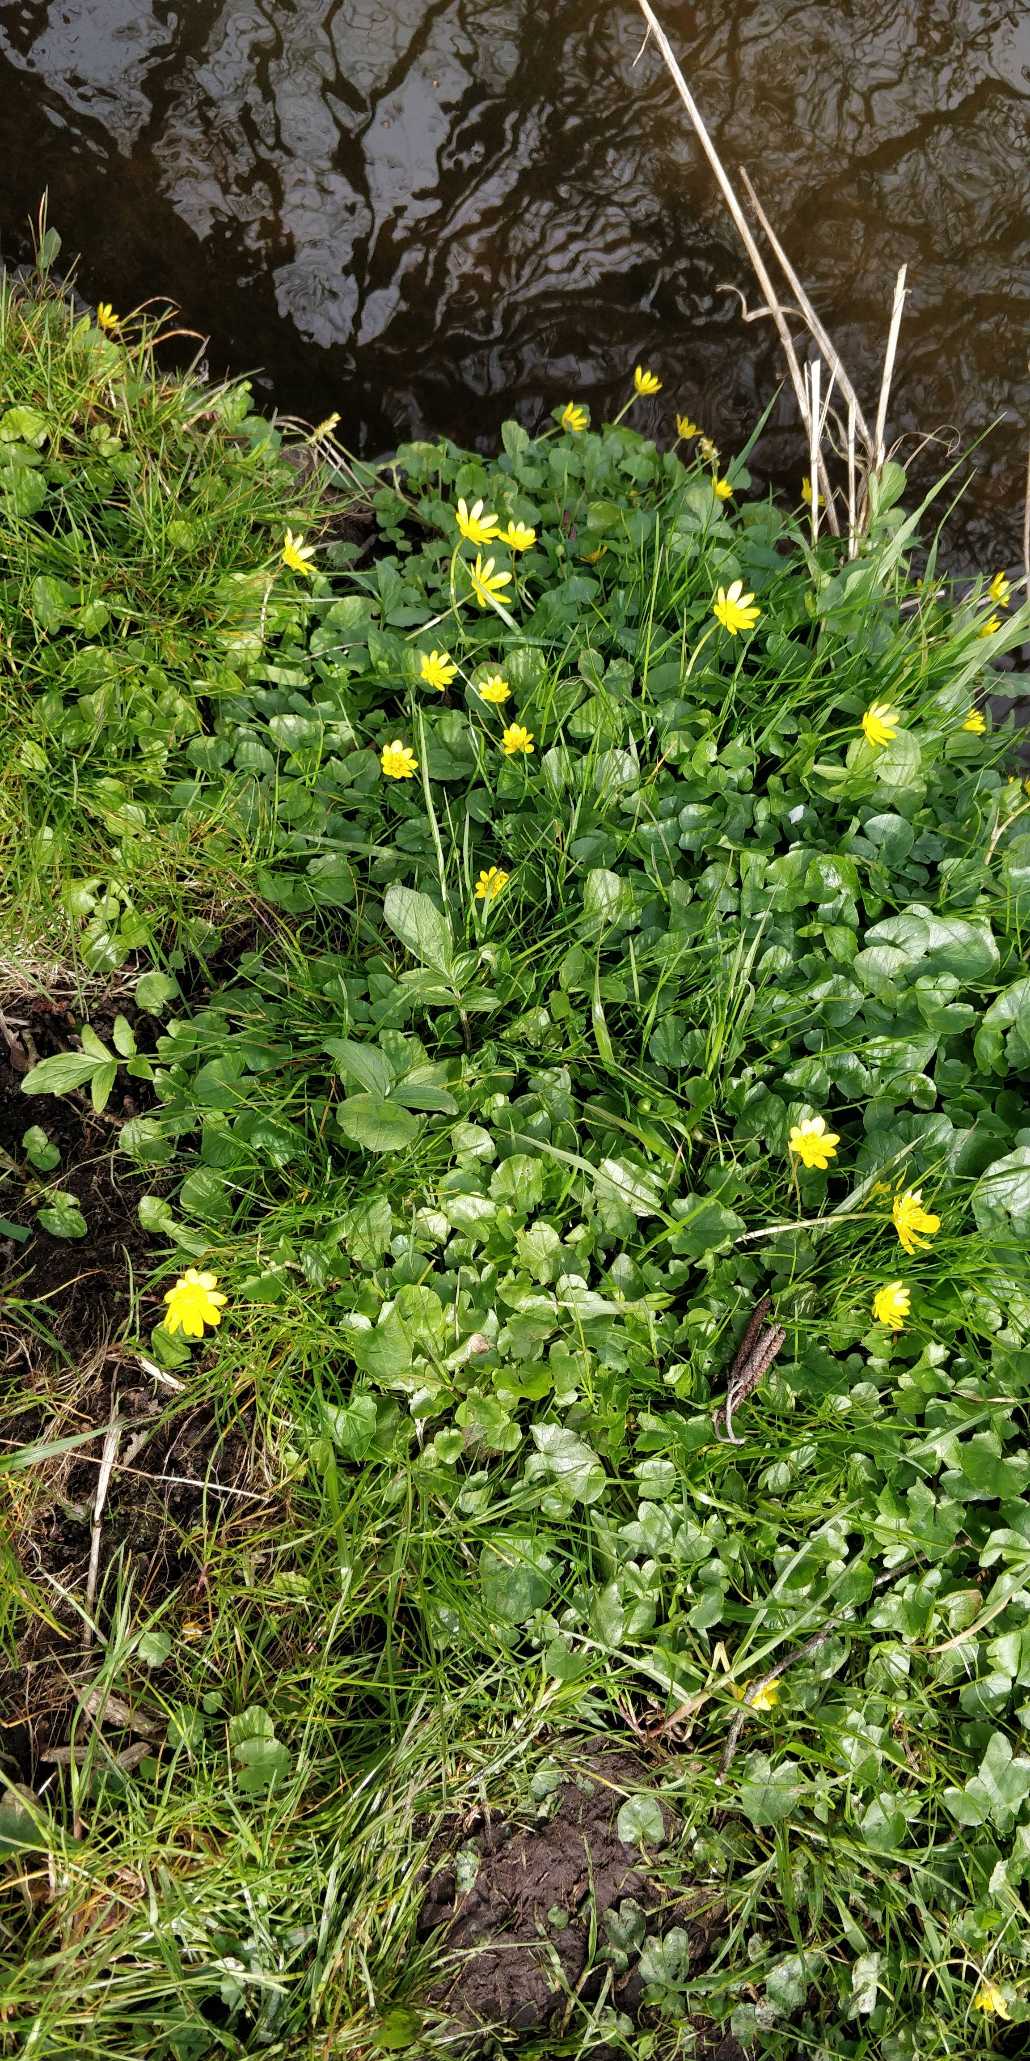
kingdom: Plantae
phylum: Tracheophyta
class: Magnoliopsida
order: Ranunculales
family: Ranunculaceae
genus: Ficaria
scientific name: Ficaria verna
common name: Vorterod
